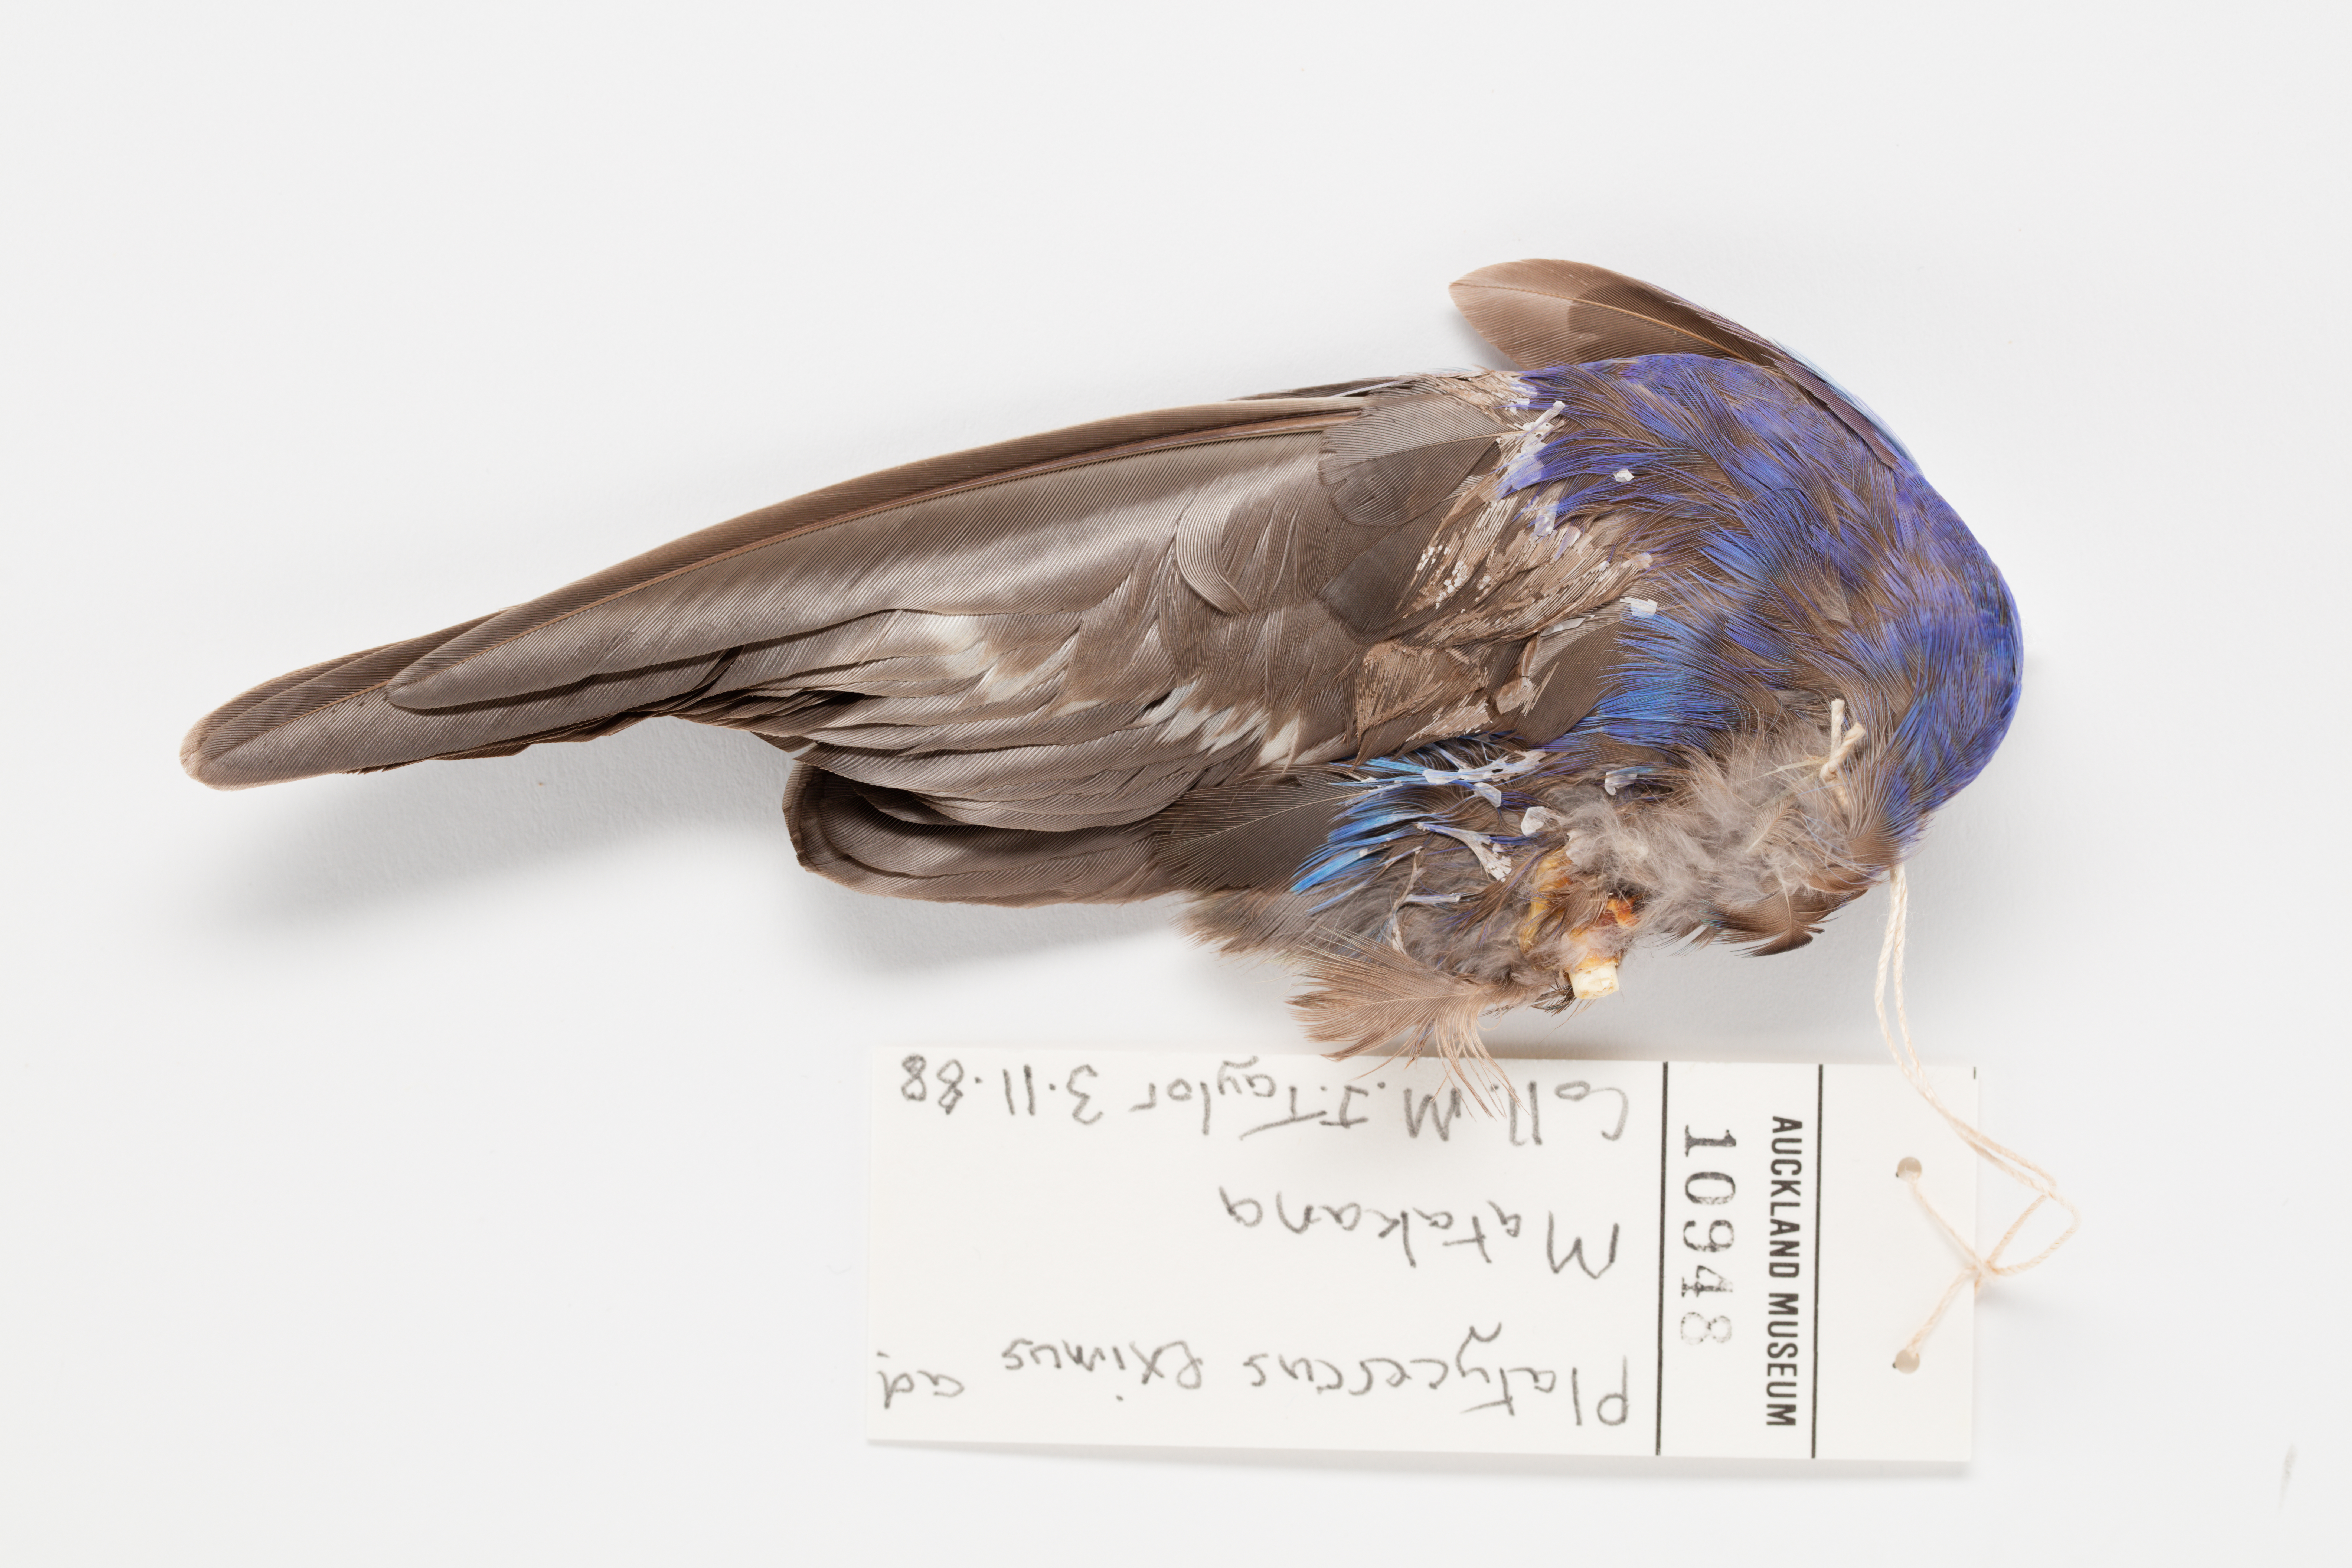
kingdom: Animalia
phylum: Chordata
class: Aves
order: Psittaciformes
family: Psittacidae
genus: Platycercus
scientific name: Platycercus eximius
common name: Eastern rosella
